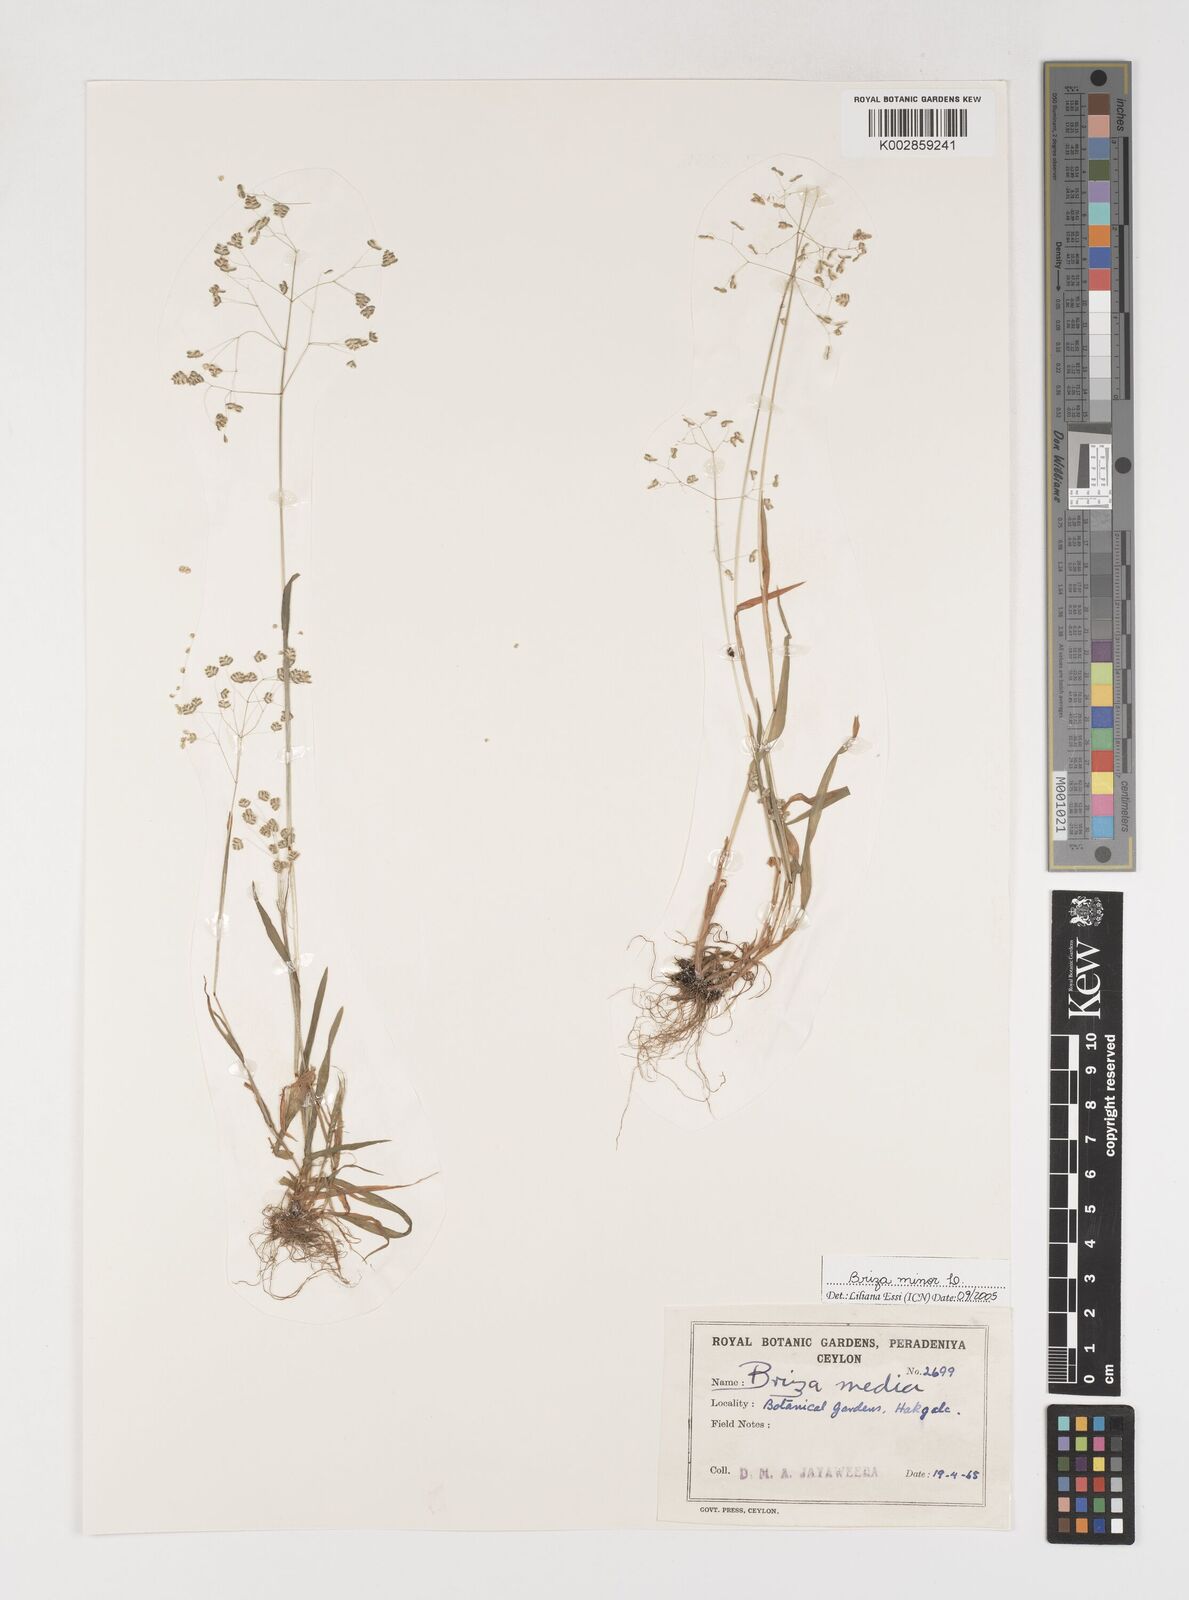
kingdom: Plantae
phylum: Tracheophyta
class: Liliopsida
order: Poales
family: Poaceae
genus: Briza
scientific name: Briza minor
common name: Lesser quaking-grass
